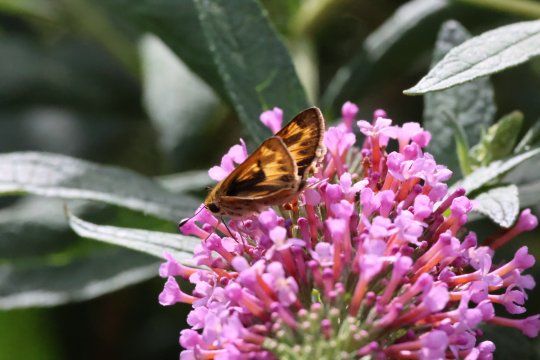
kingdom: Animalia
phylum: Arthropoda
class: Insecta
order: Lepidoptera
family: Hesperiidae
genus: Hylephila
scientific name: Hylephila phyleus
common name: Fiery Skipper
